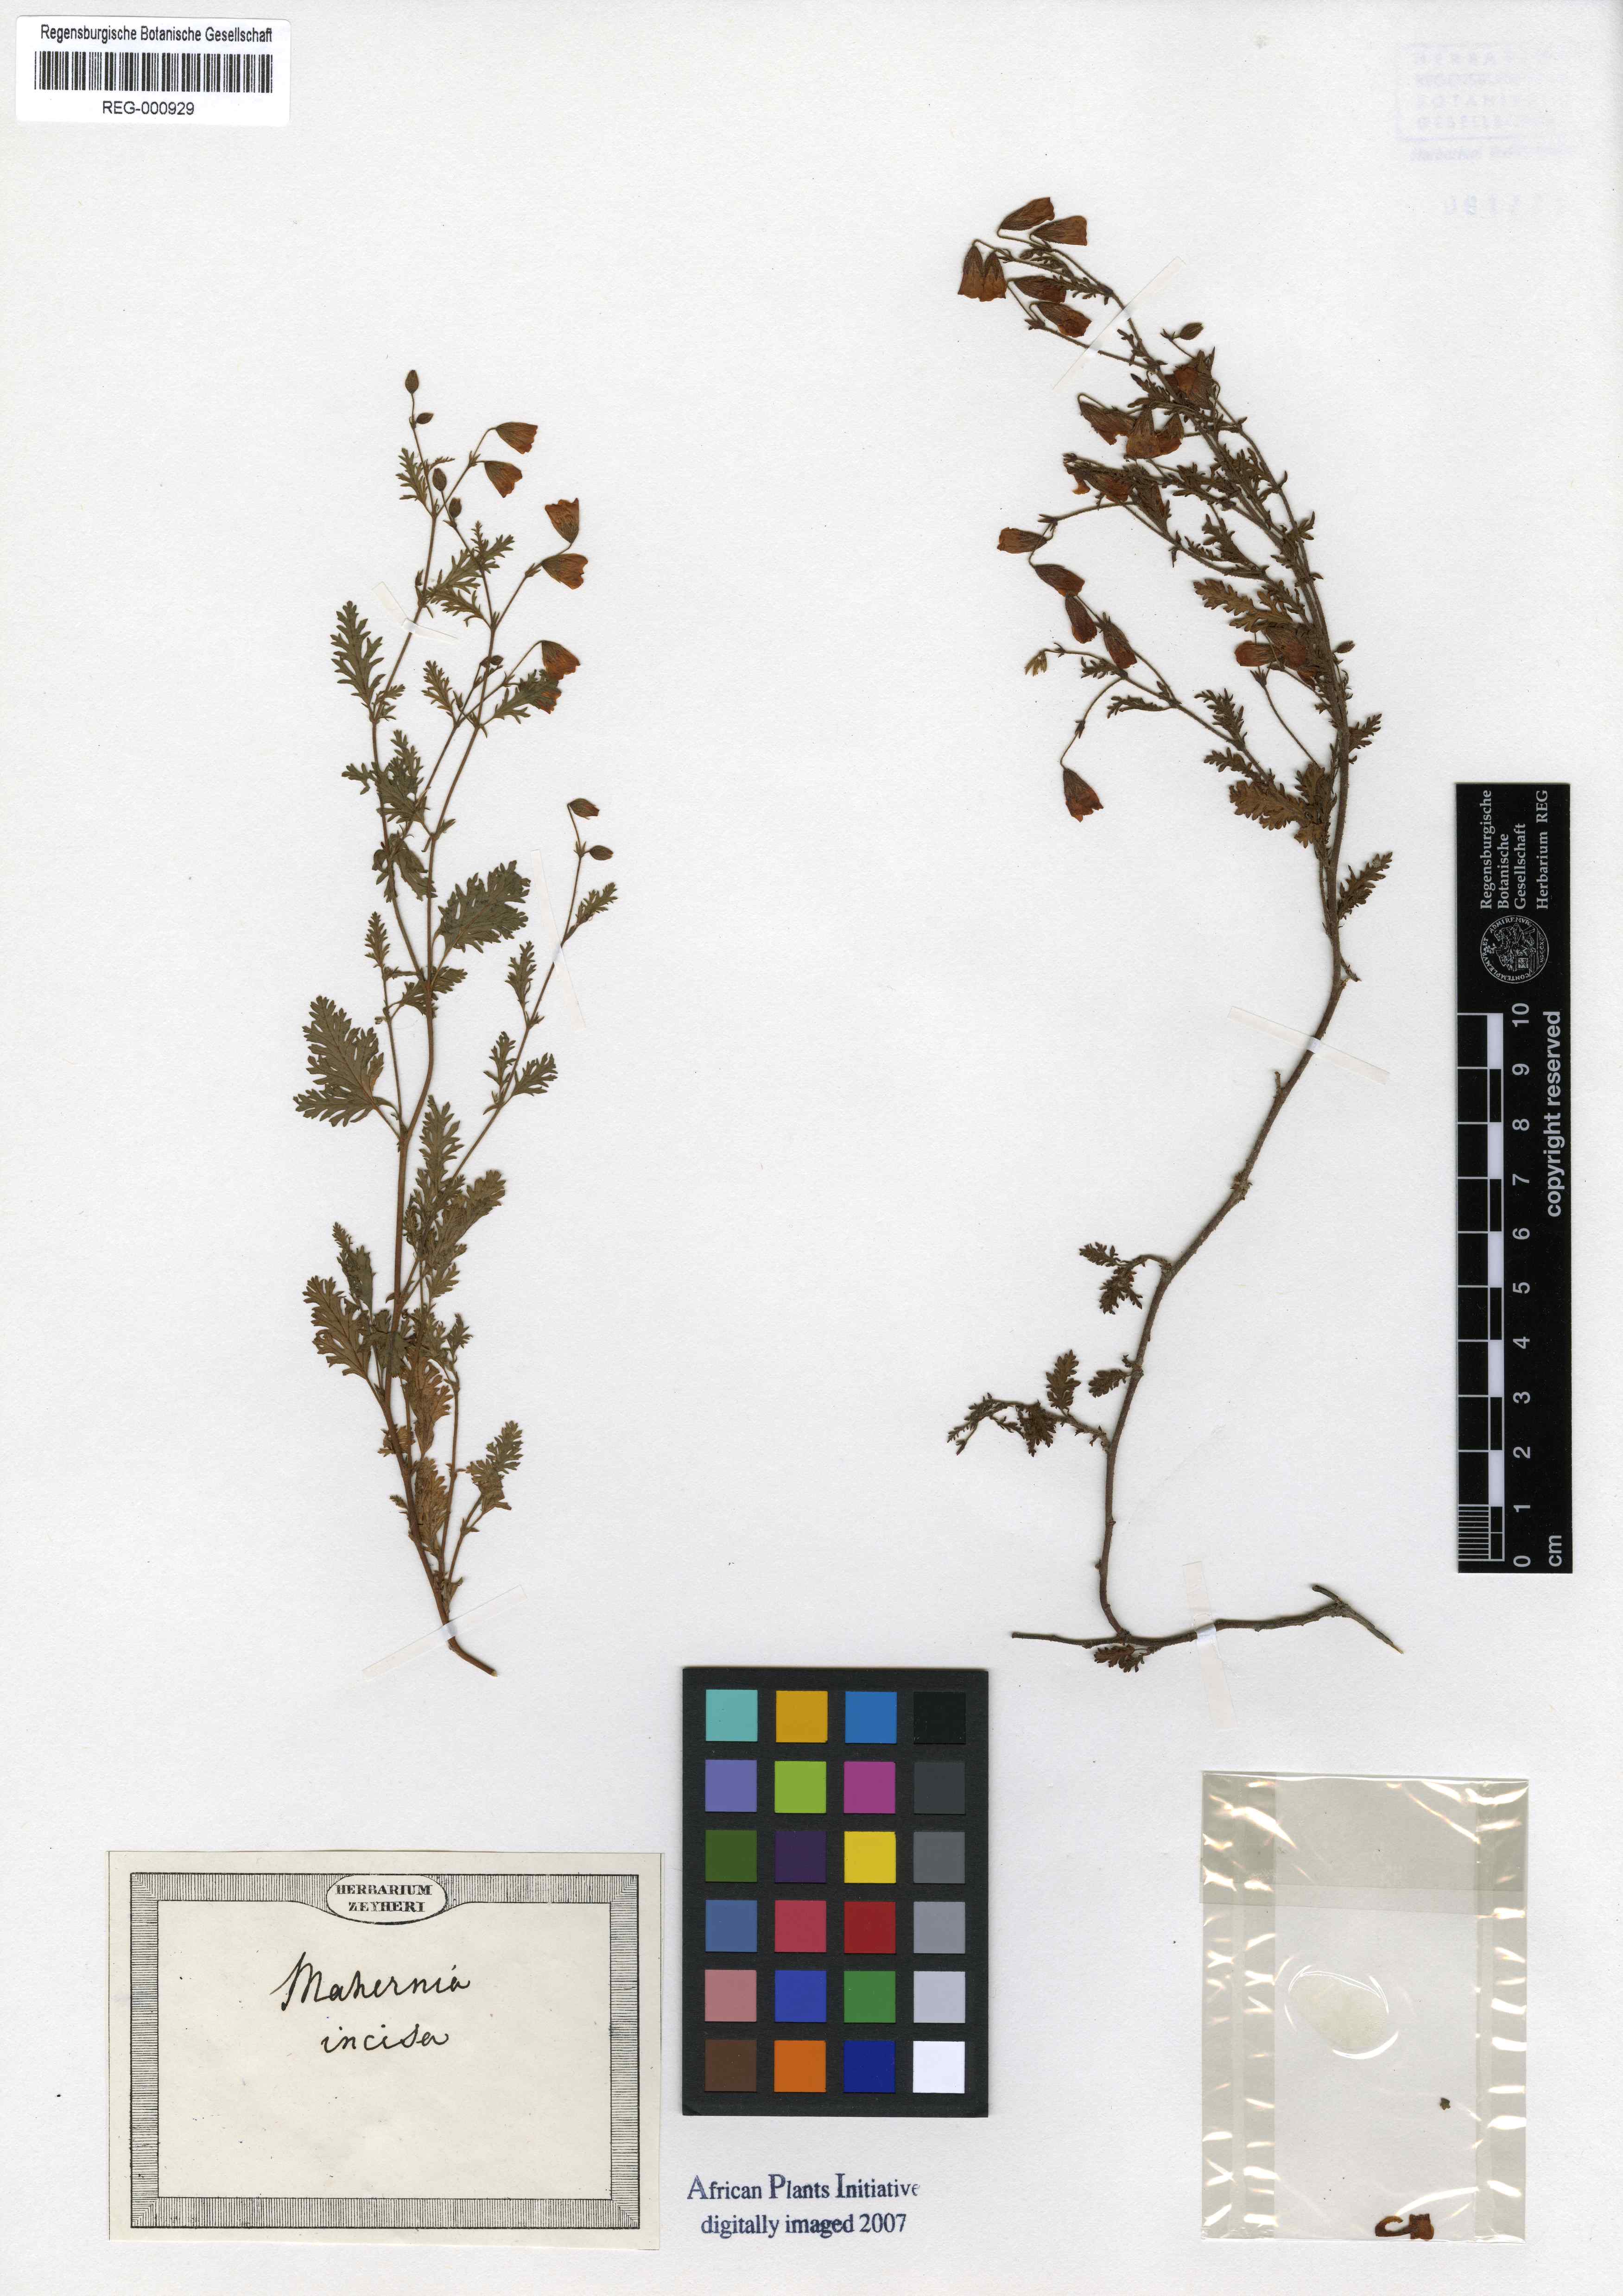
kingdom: Plantae
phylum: Tracheophyta
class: Magnoliopsida
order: Malvales
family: Malvaceae
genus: Hermannia
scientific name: Hermannia Mahernia incisa
